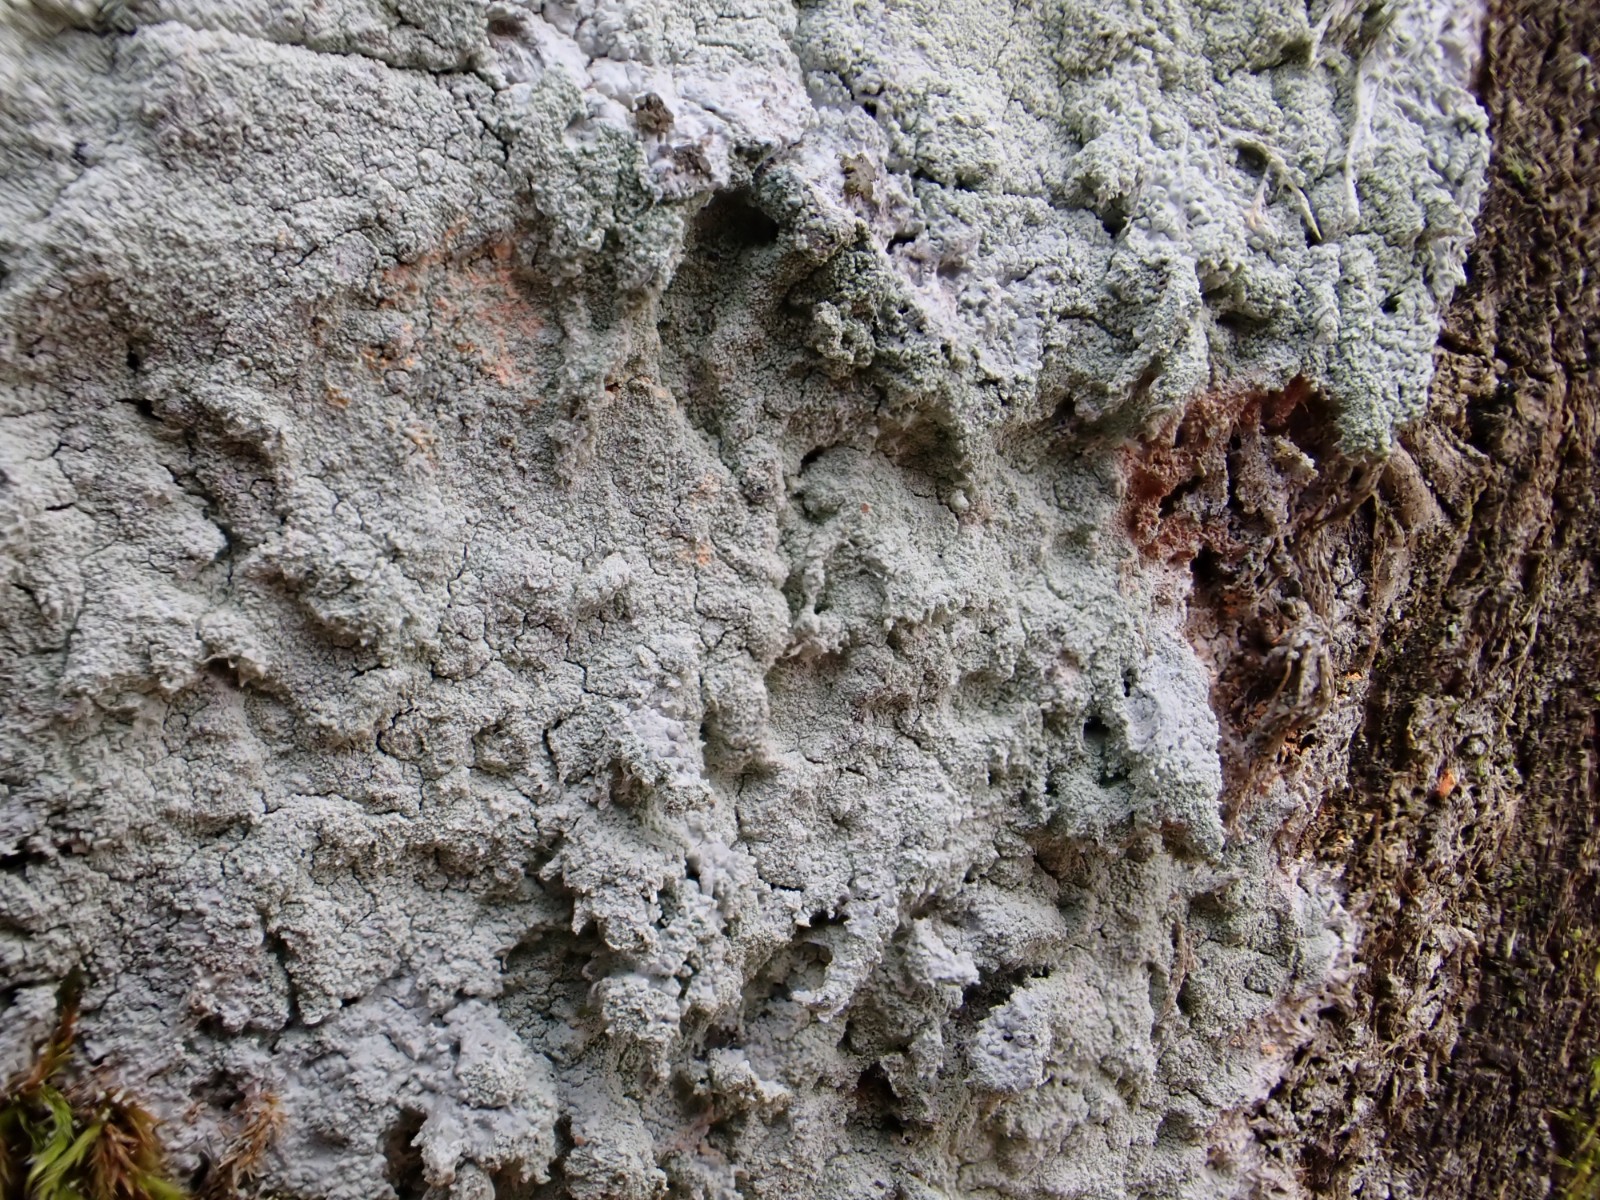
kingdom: Fungi
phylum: Ascomycota
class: Lecanoromycetes
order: Ostropales
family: Phlyctidaceae
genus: Phlyctis
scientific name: Phlyctis argena
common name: almindelig sølvlav
